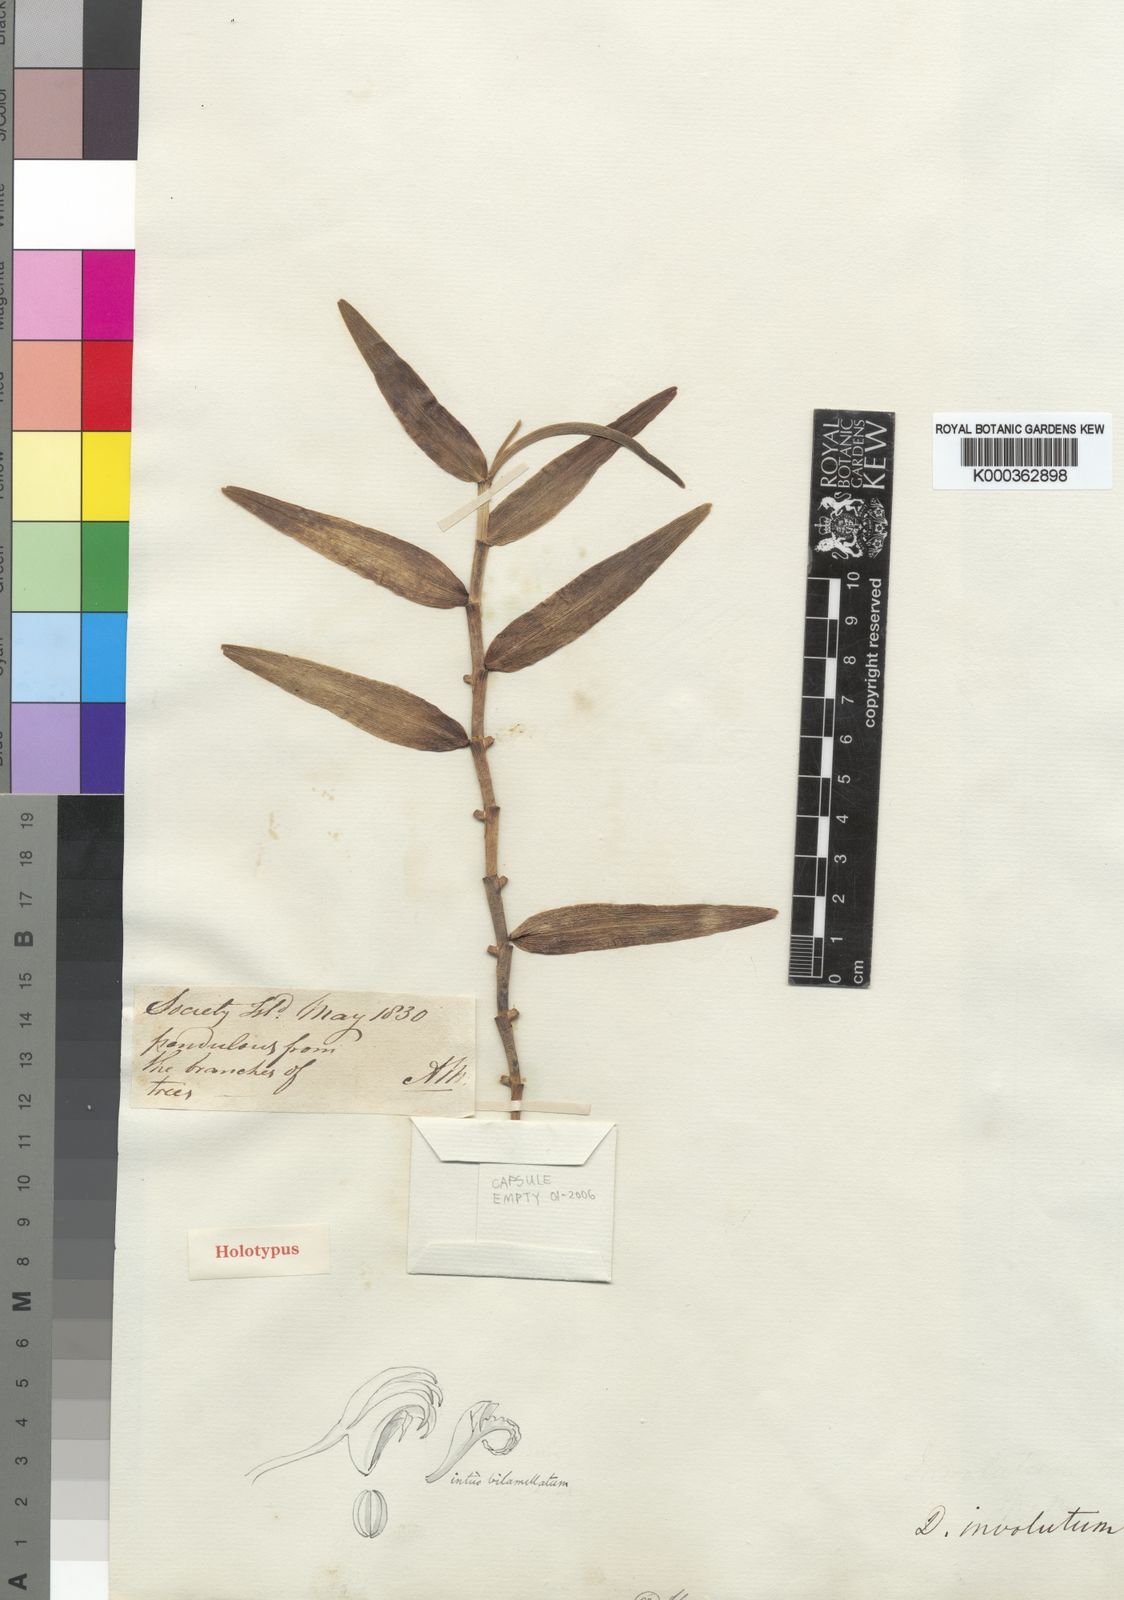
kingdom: Plantae
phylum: Tracheophyta
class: Liliopsida
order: Asparagales
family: Orchidaceae
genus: Dendrobium
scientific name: Dendrobium involutum
